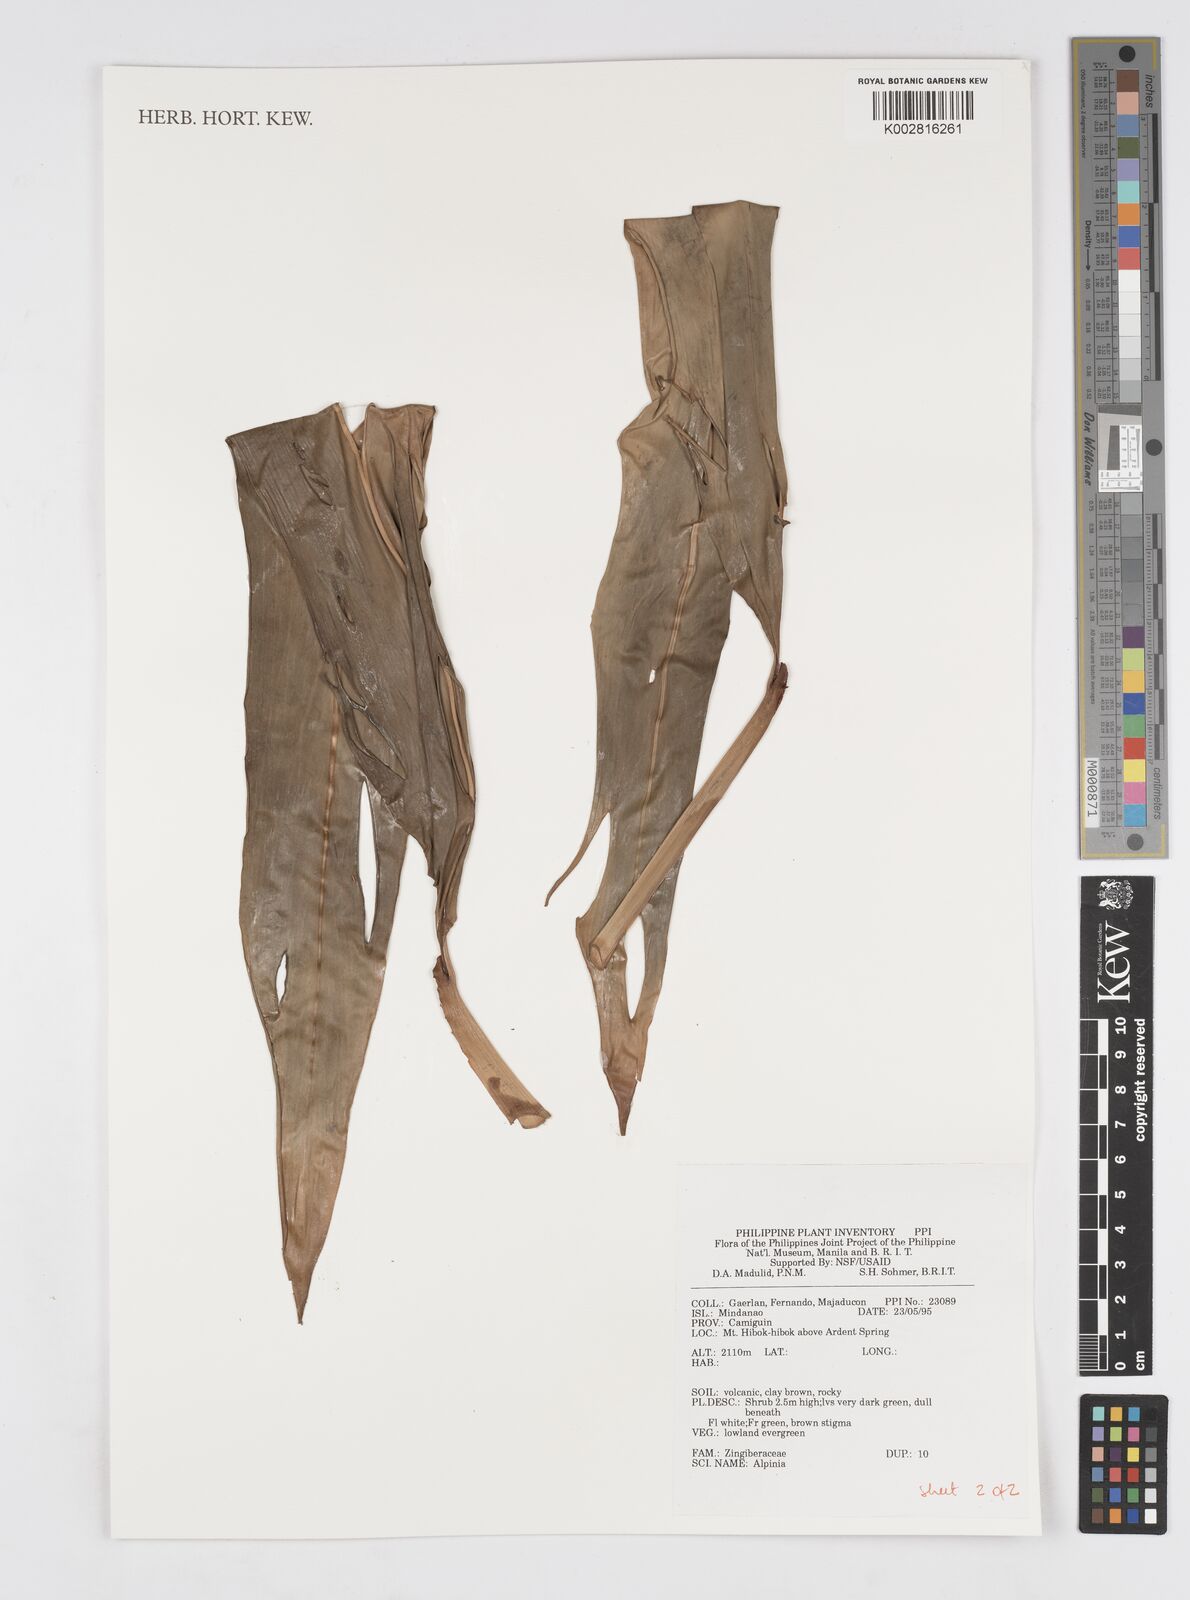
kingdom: Plantae
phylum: Tracheophyta
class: Liliopsida
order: Zingiberales
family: Zingiberaceae
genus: Alpinia
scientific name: Alpinia
